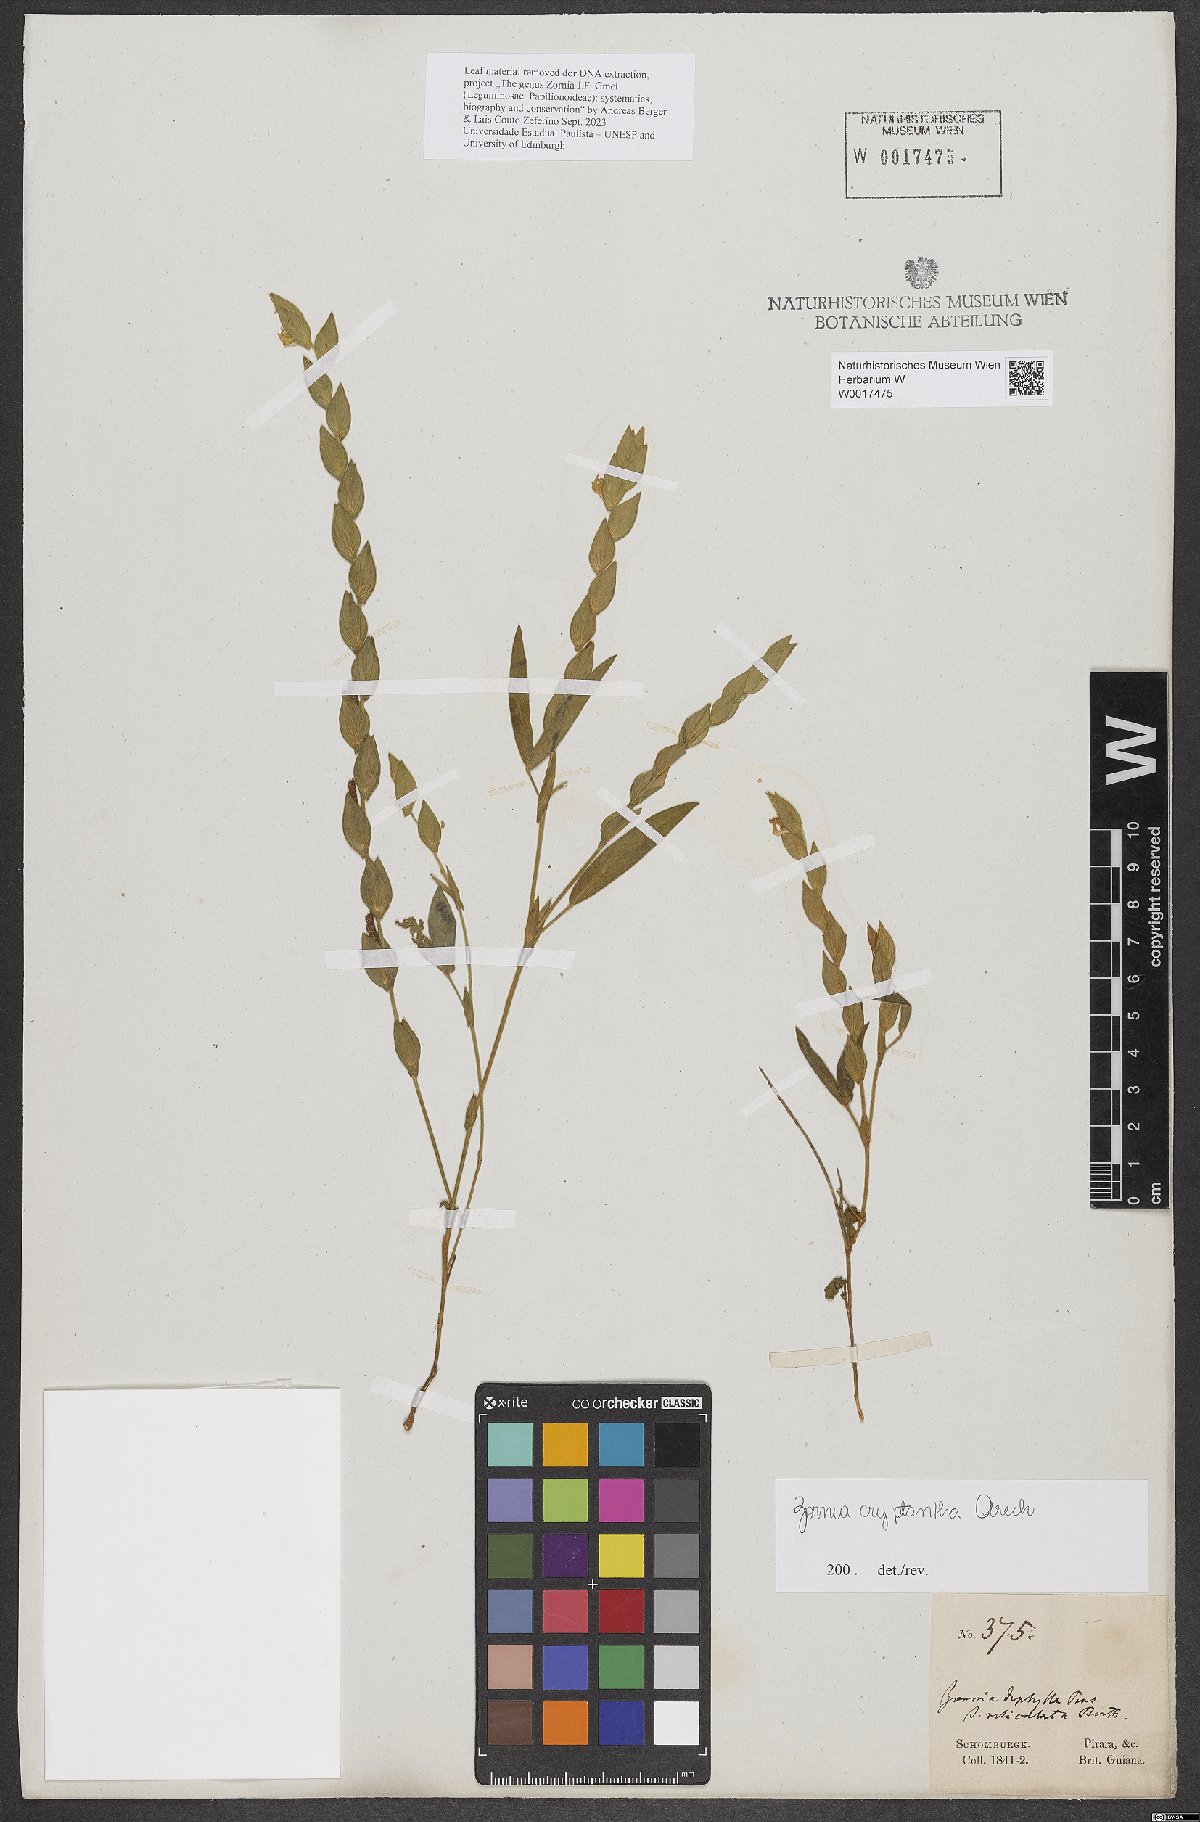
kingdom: Plantae
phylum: Tracheophyta
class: Magnoliopsida
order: Fabales
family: Fabaceae
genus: Zornia
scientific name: Zornia cryptantha
